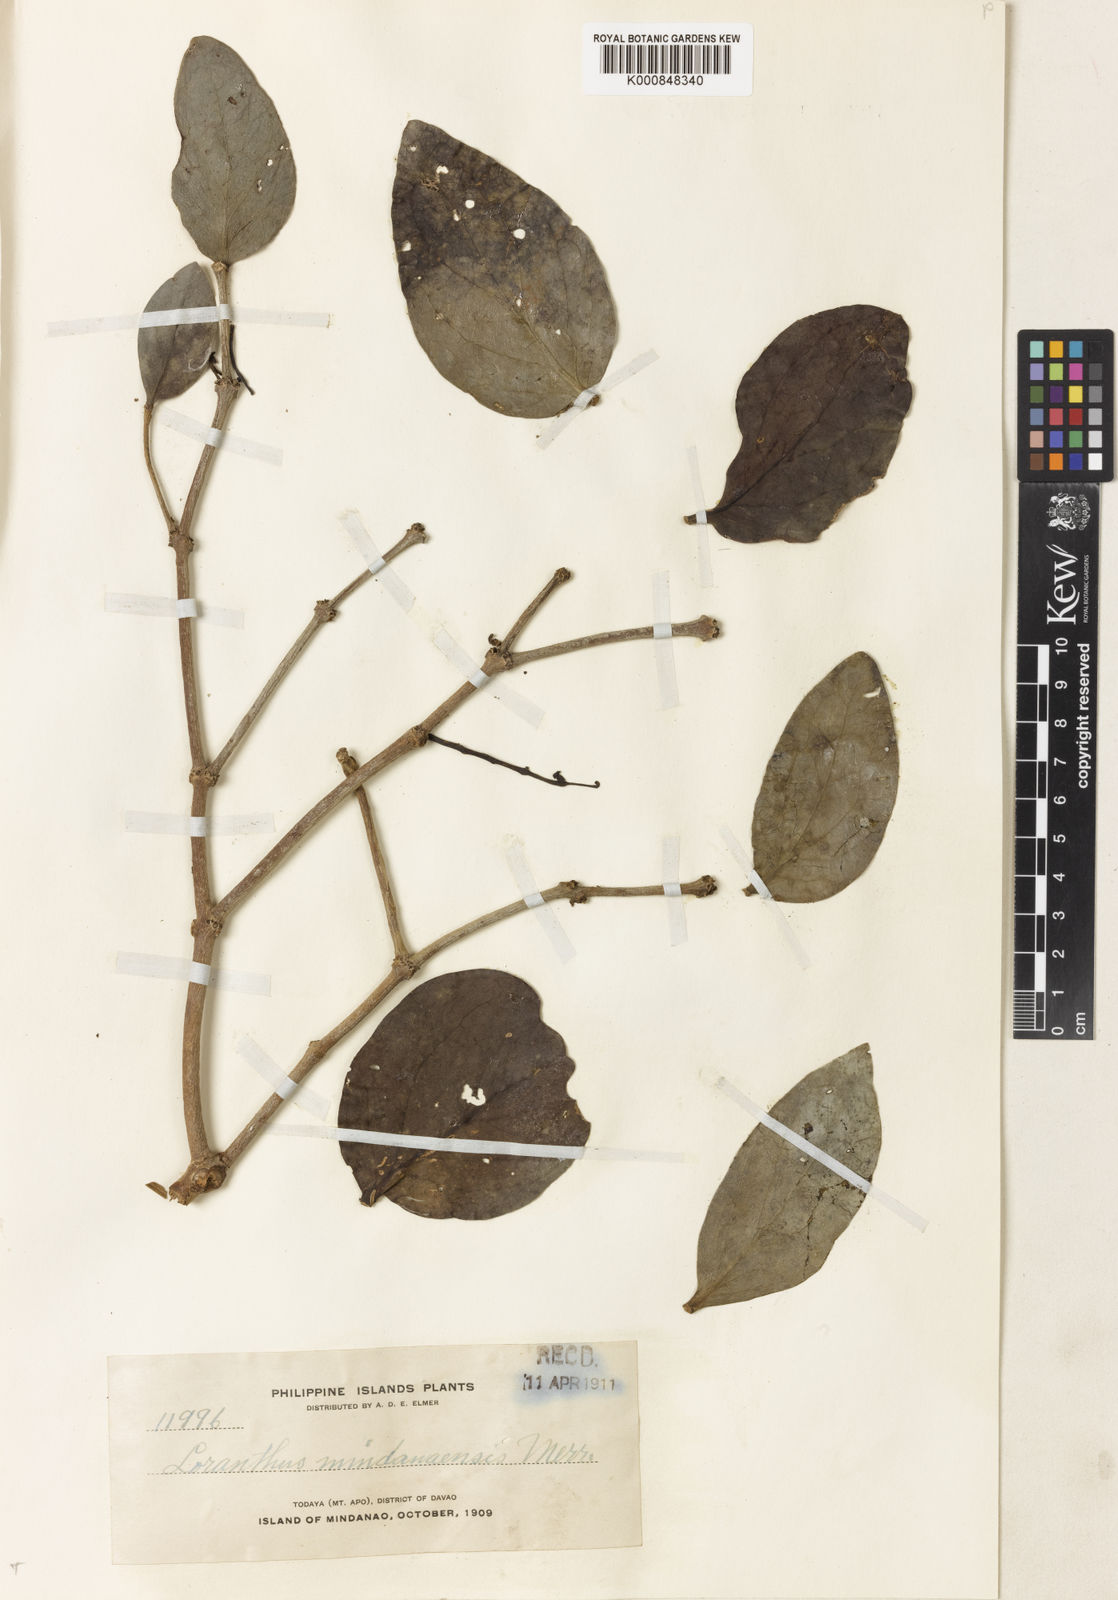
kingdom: Plantae
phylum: Tracheophyta
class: Magnoliopsida
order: Santalales
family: Loranthaceae
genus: Amylotheca
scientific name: Amylotheca
